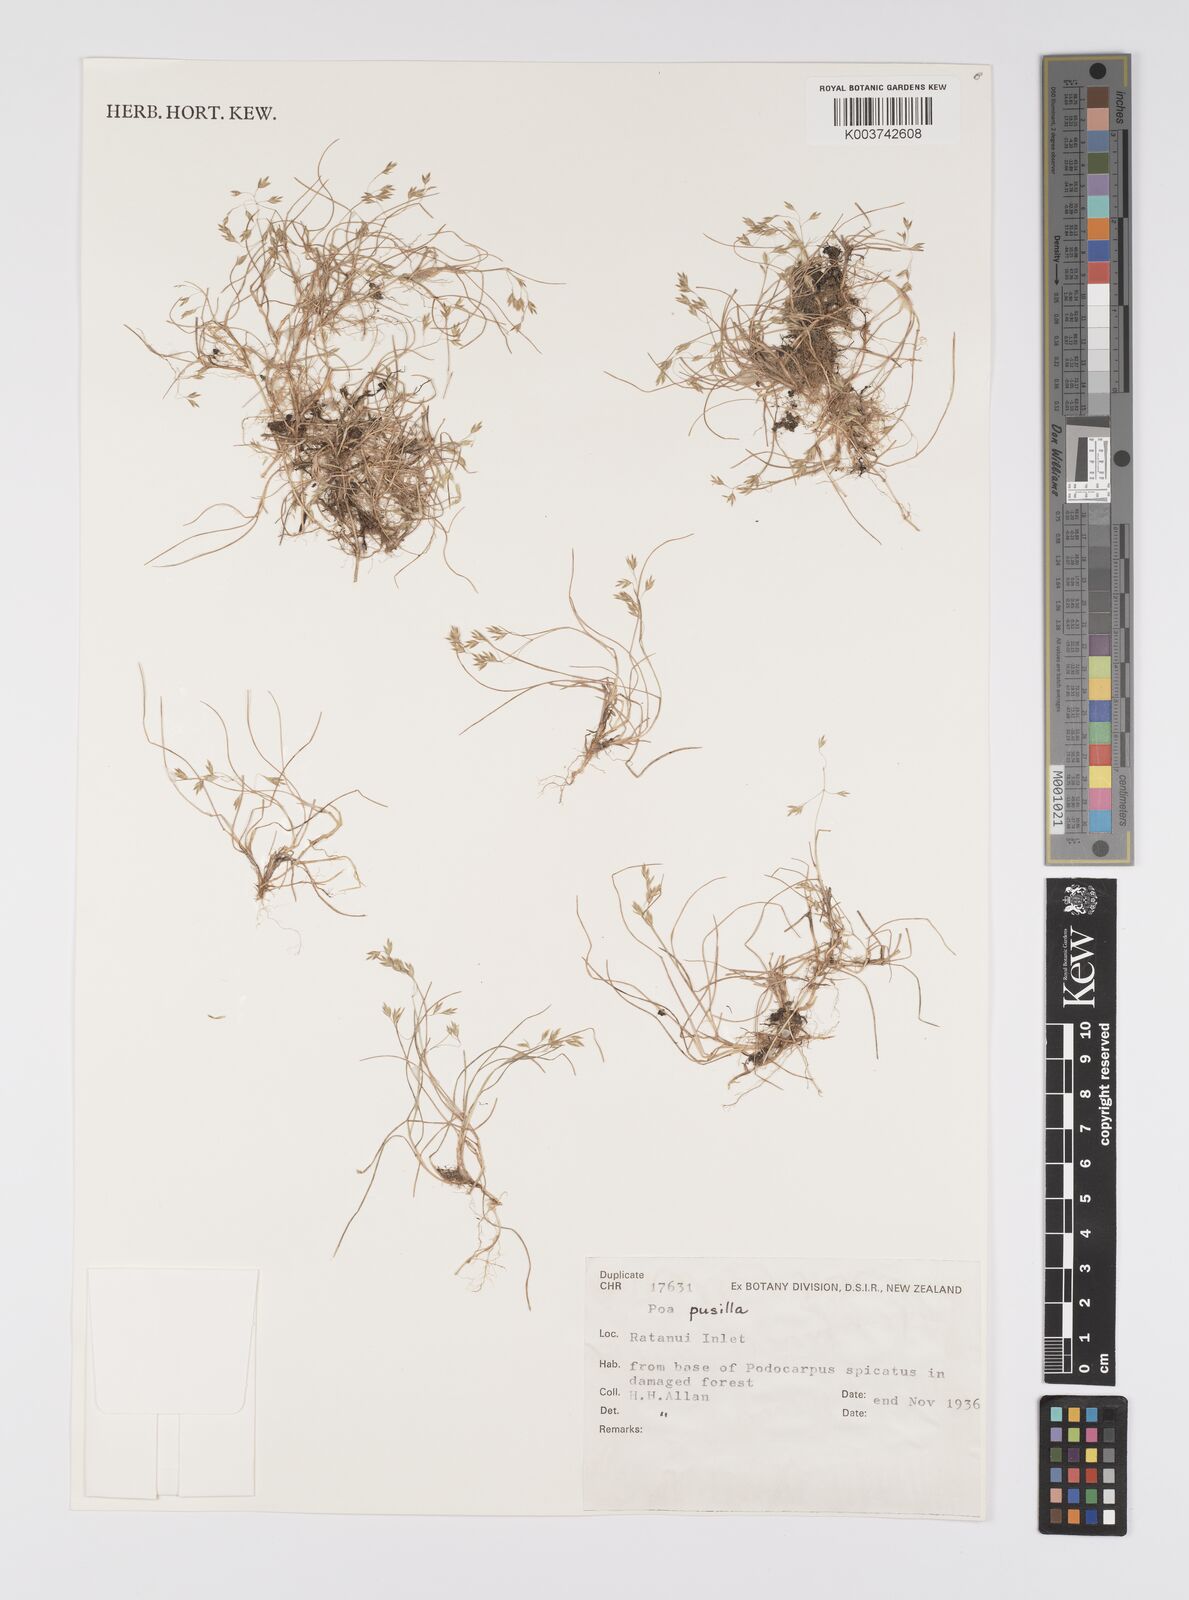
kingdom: Plantae
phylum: Tracheophyta
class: Liliopsida
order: Poales
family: Poaceae
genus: Poa
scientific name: Poa anceps
